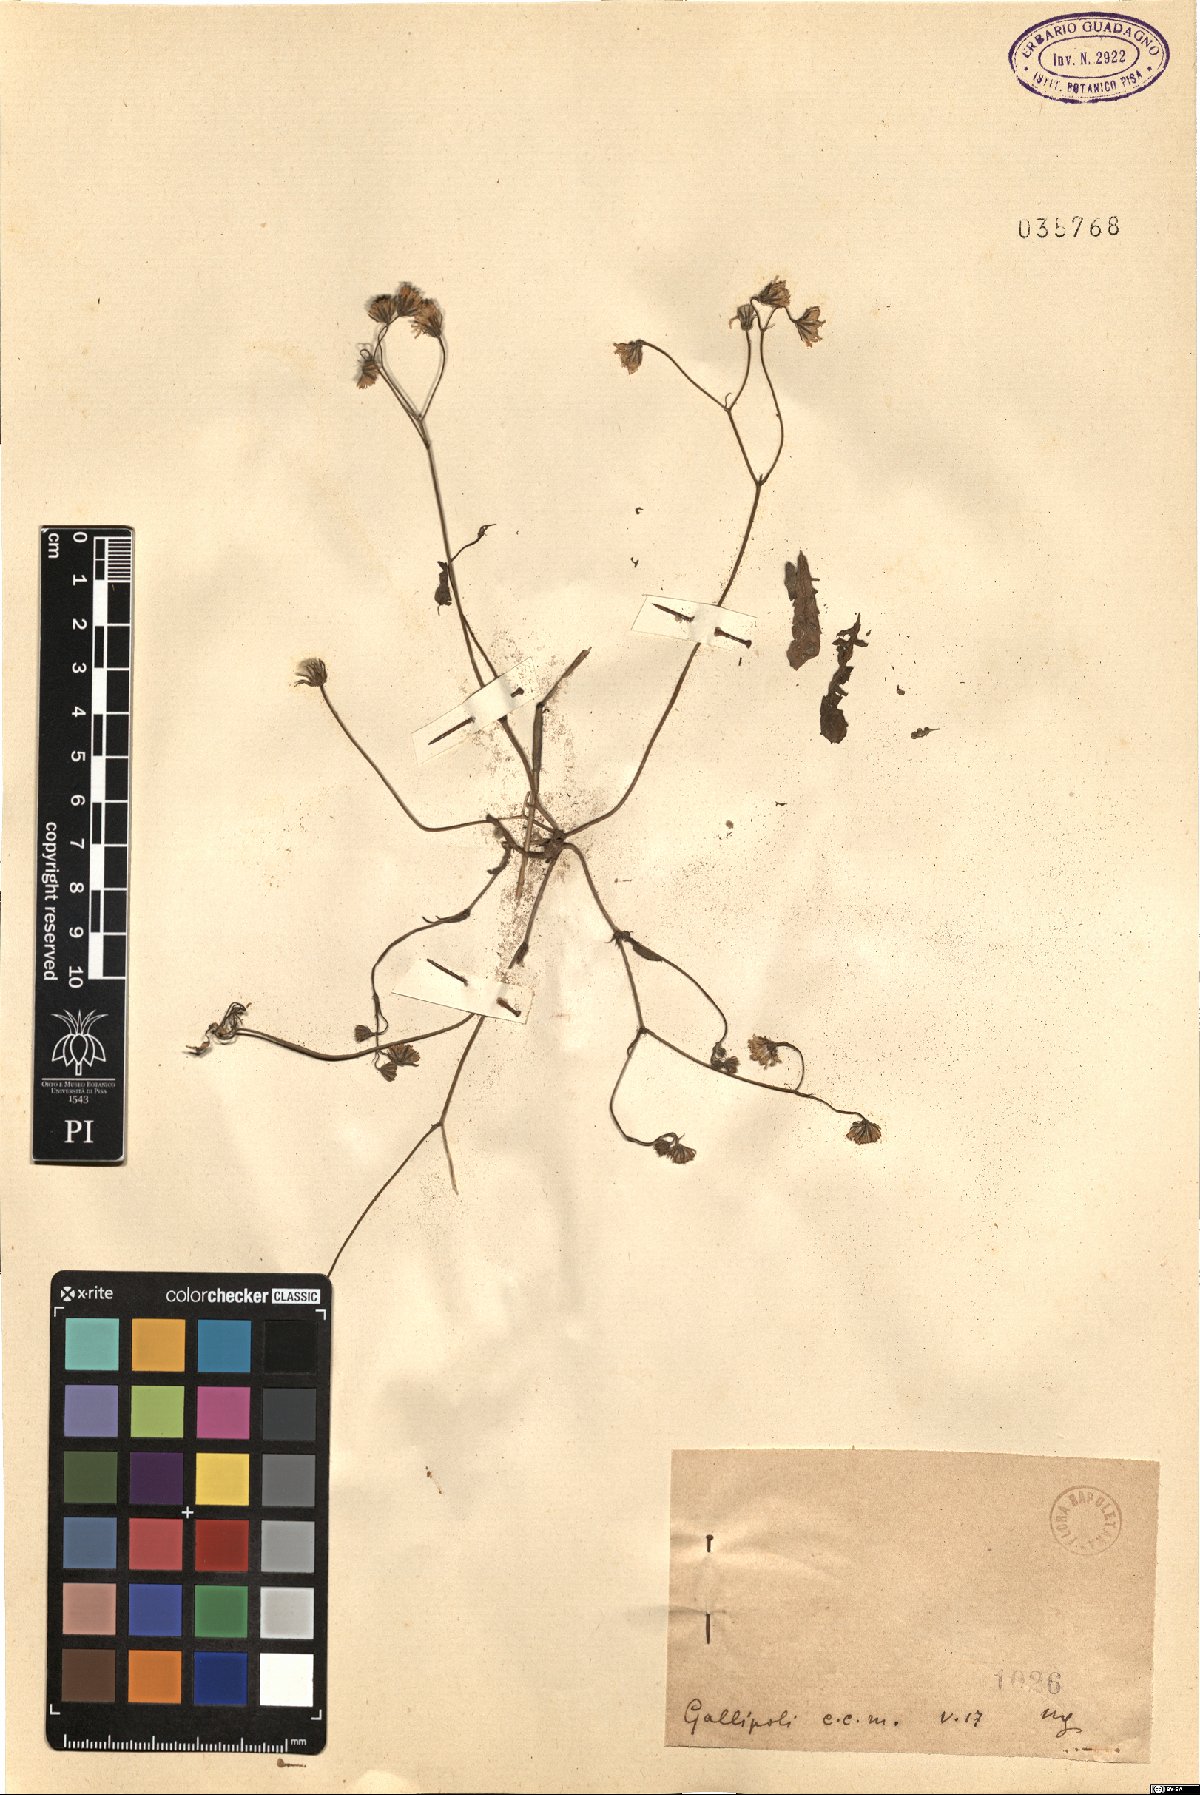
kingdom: Plantae
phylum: Tracheophyta
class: Magnoliopsida
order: Asterales
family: Asteraceae
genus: Crepis
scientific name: Crepis
